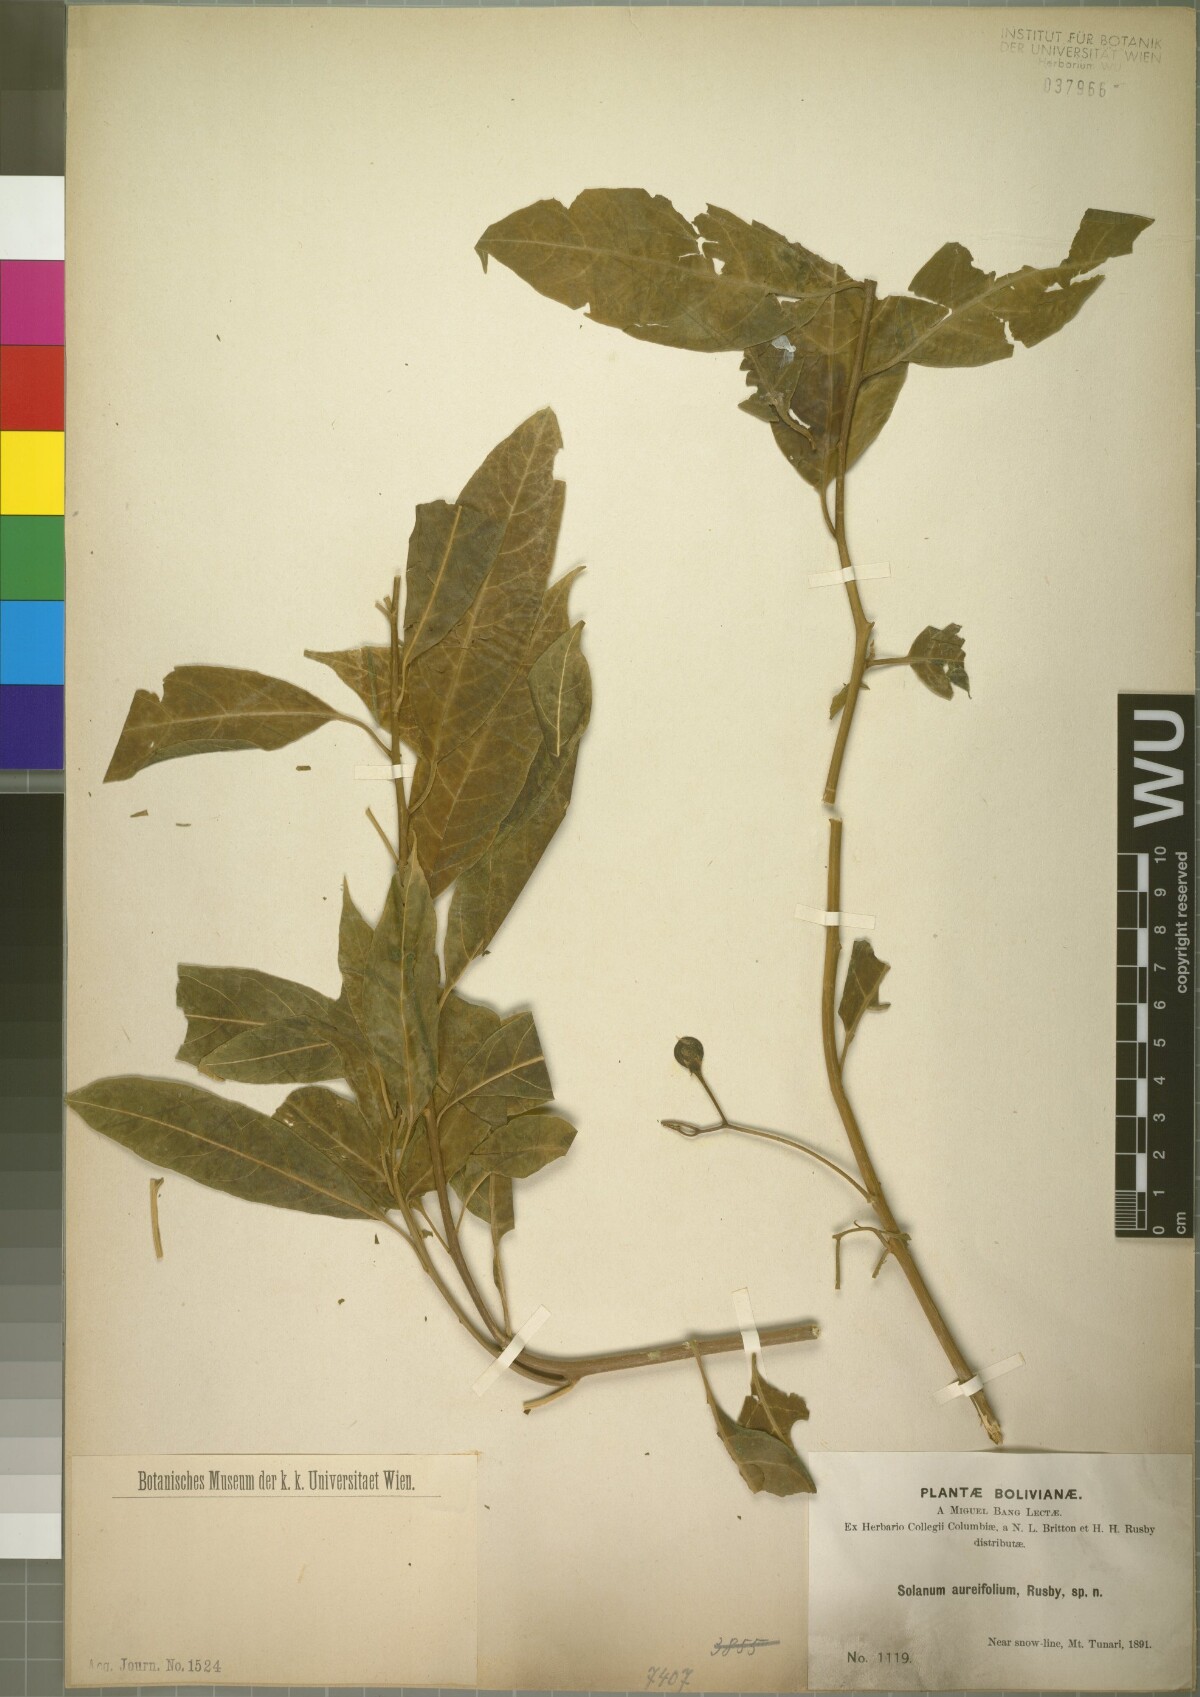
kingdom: Plantae
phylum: Tracheophyta
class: Magnoliopsida
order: Solanales
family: Solanaceae
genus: Solanum
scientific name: Solanum maturecalvans
